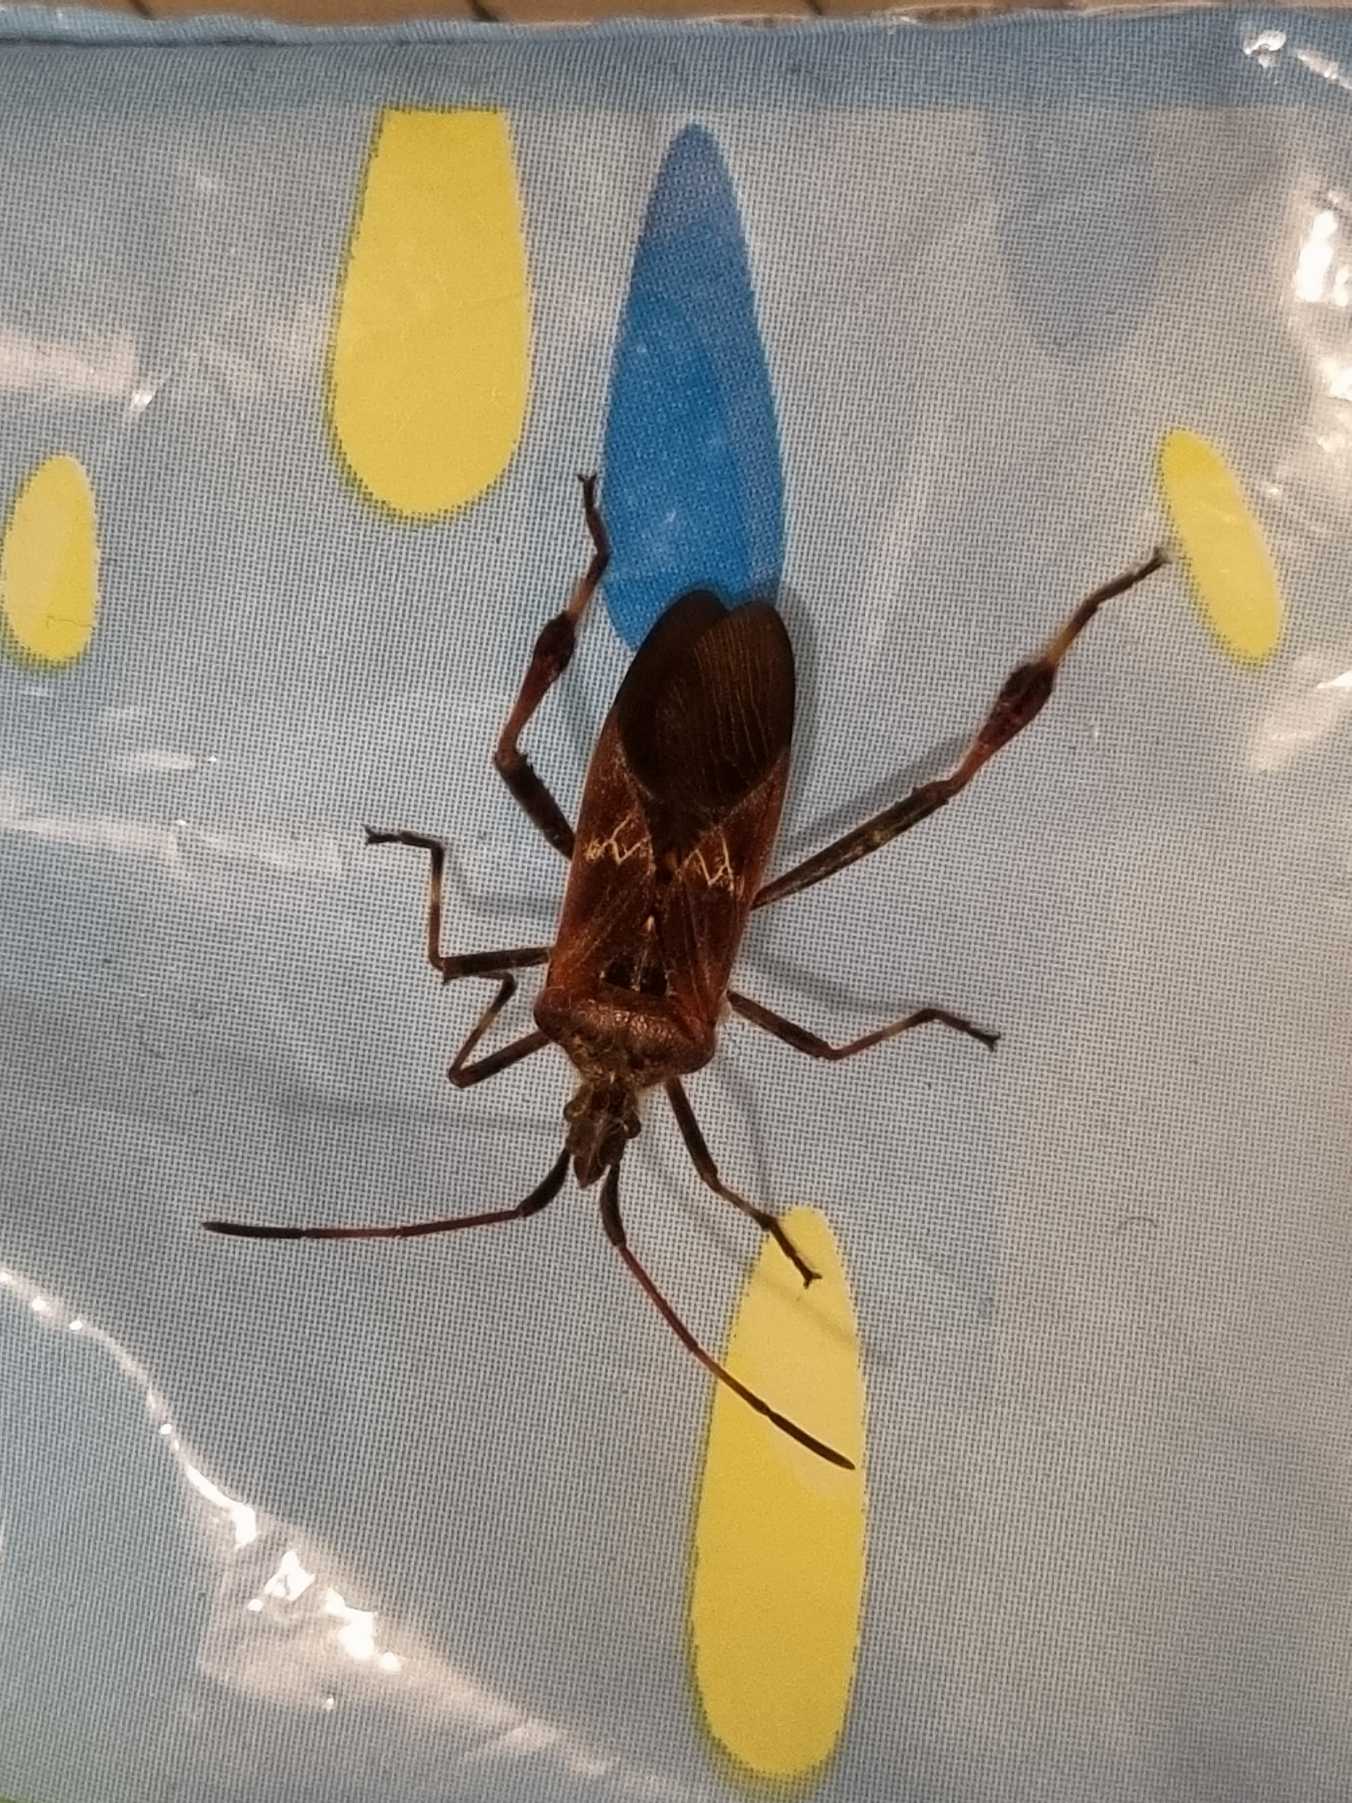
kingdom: Animalia
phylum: Arthropoda
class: Insecta
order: Hemiptera
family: Coreidae
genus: Leptoglossus
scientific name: Leptoglossus occidentalis
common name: Amerikansk fyrretæge
